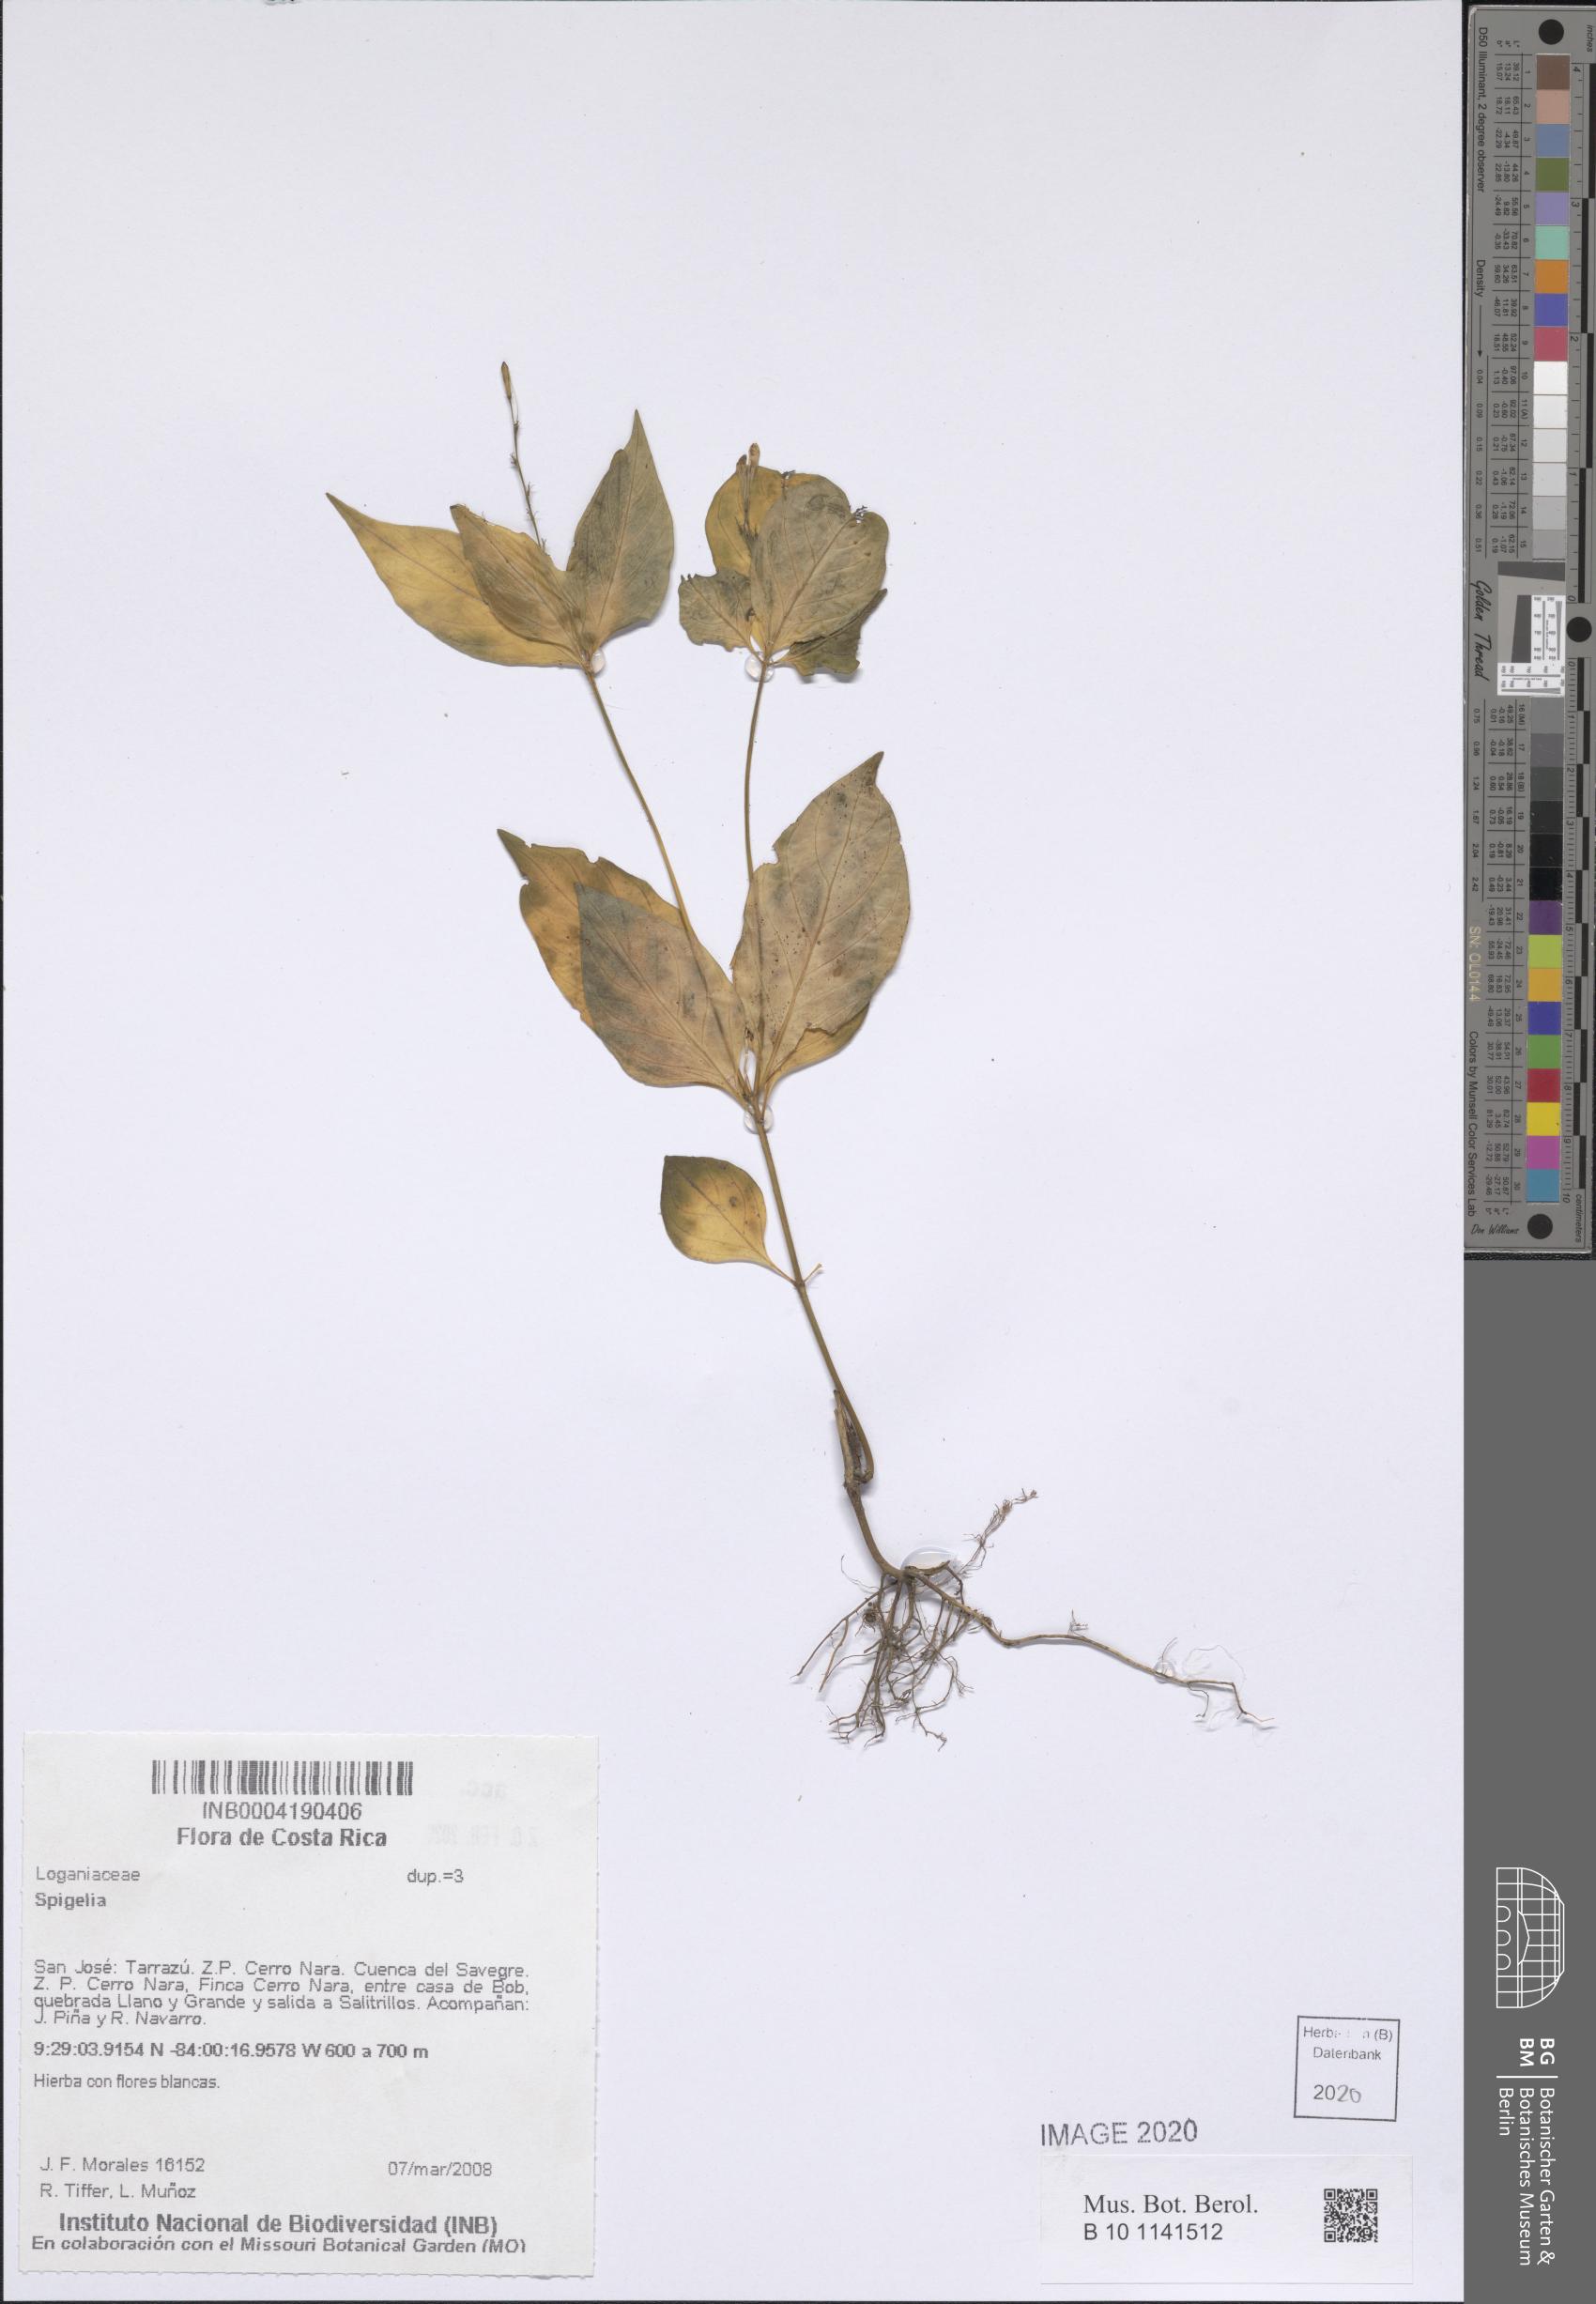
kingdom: Plantae
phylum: Tracheophyta
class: Magnoliopsida
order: Gentianales
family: Loganiaceae
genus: Spigelia
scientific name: Spigelia
